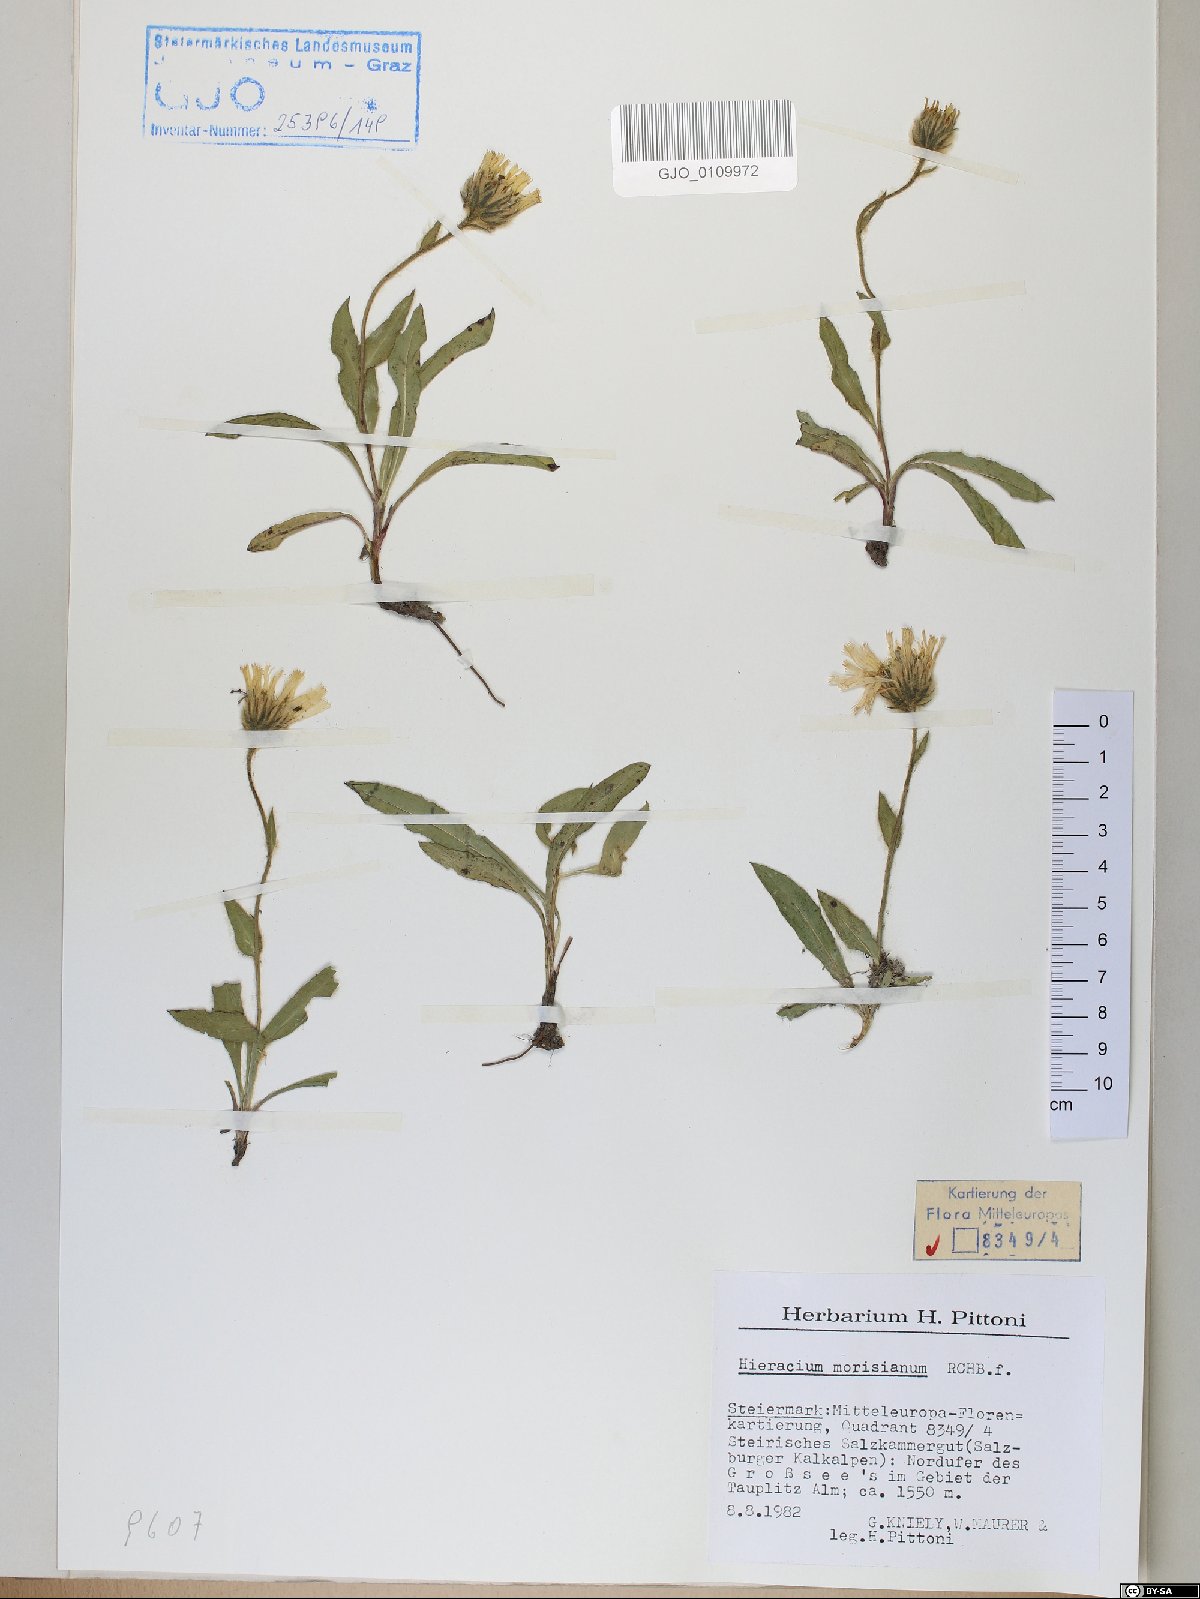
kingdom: Plantae
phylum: Tracheophyta
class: Magnoliopsida
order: Asterales
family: Asteraceae
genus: Hieracium
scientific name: Hieracium pilosum
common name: Fimbriate-pitted hawkweed
